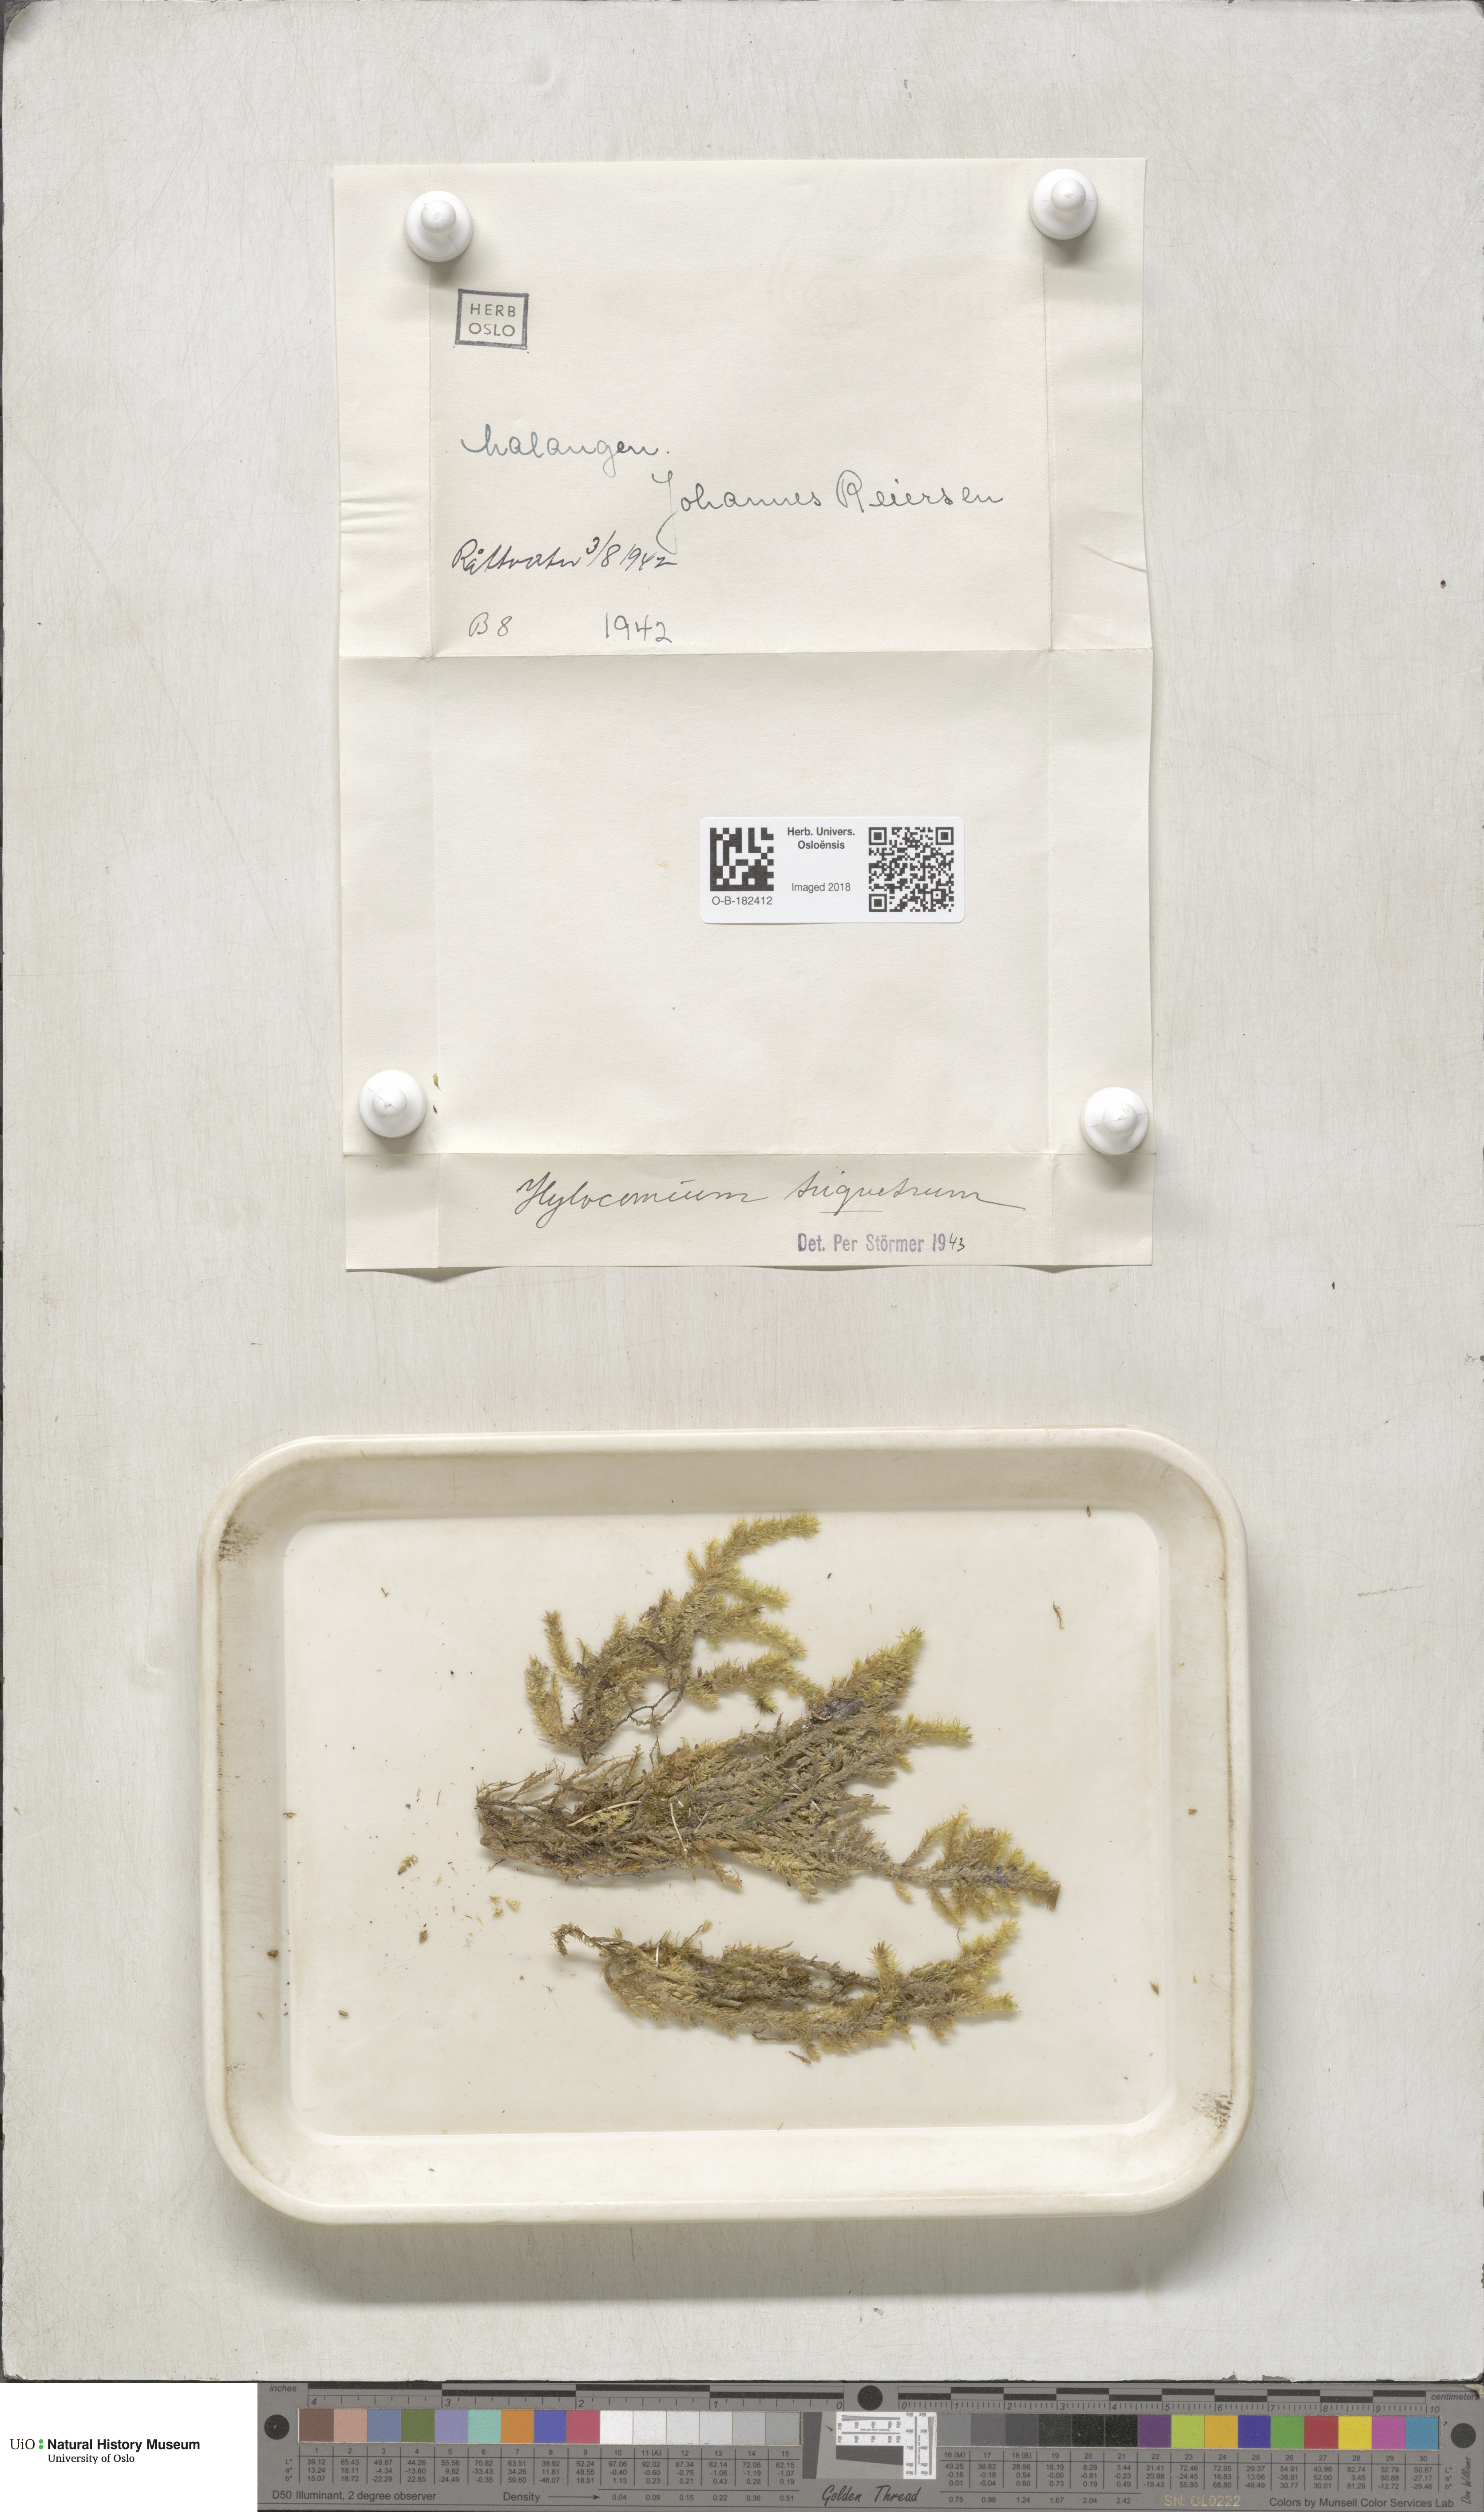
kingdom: Plantae
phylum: Bryophyta
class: Bryopsida
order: Hypnales
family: Hylocomiaceae
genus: Hylocomiadelphus
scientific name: Hylocomiadelphus triquetrus
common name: Rough goose neck moss
